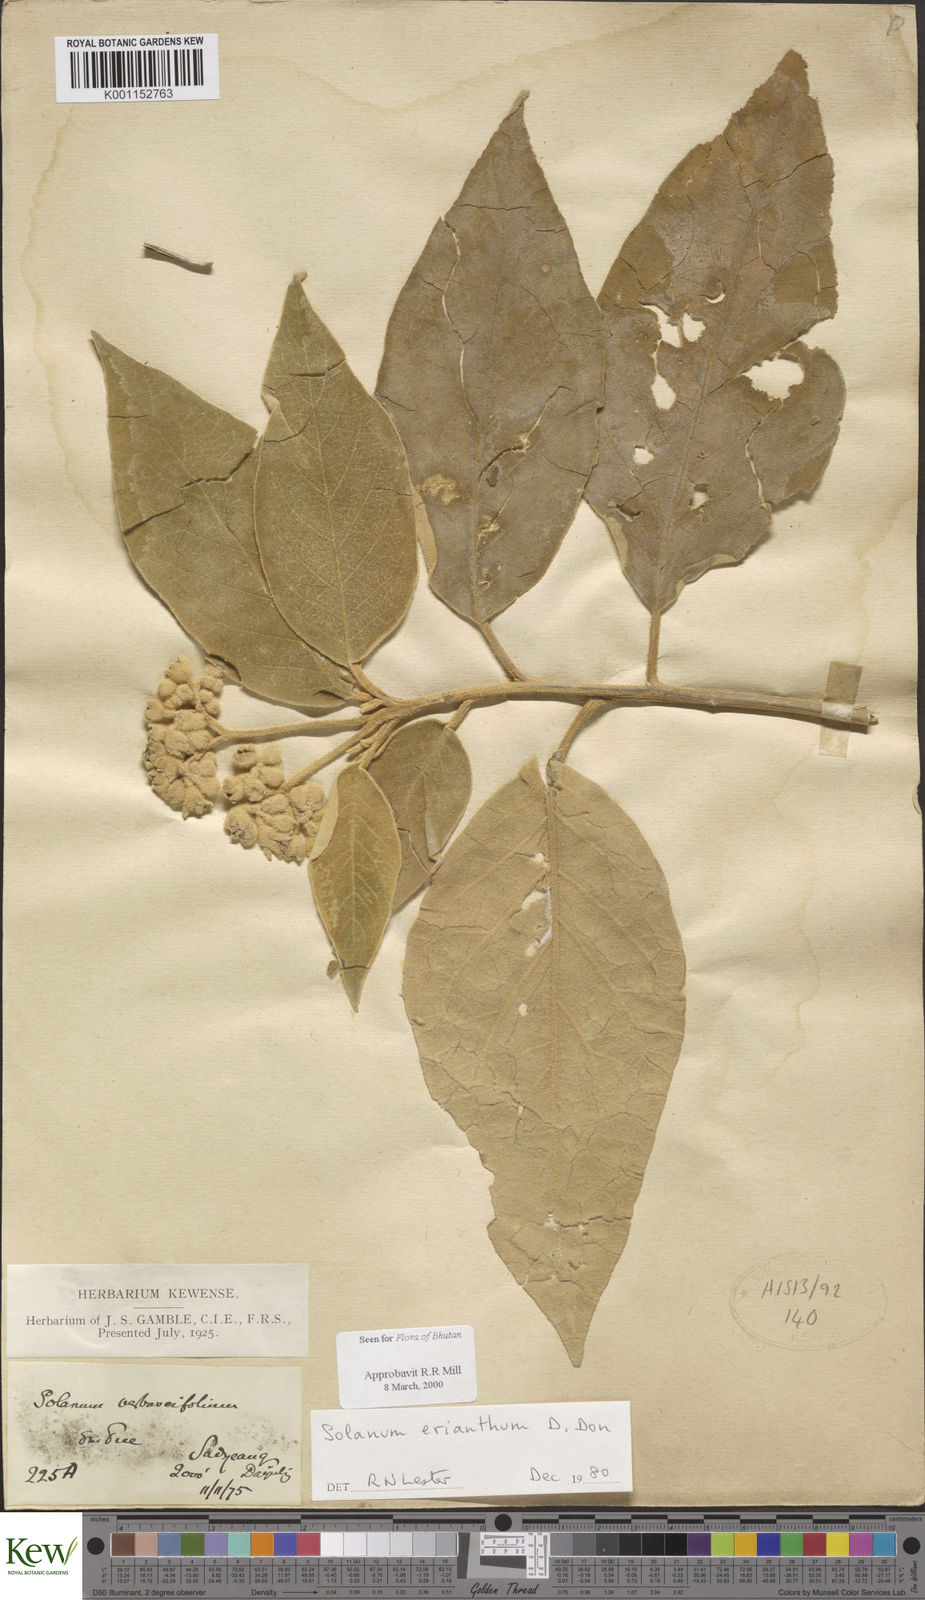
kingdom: Plantae
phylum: Tracheophyta
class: Magnoliopsida
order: Solanales
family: Solanaceae
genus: Solanum
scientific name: Solanum erianthum
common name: Tobacco-tree
